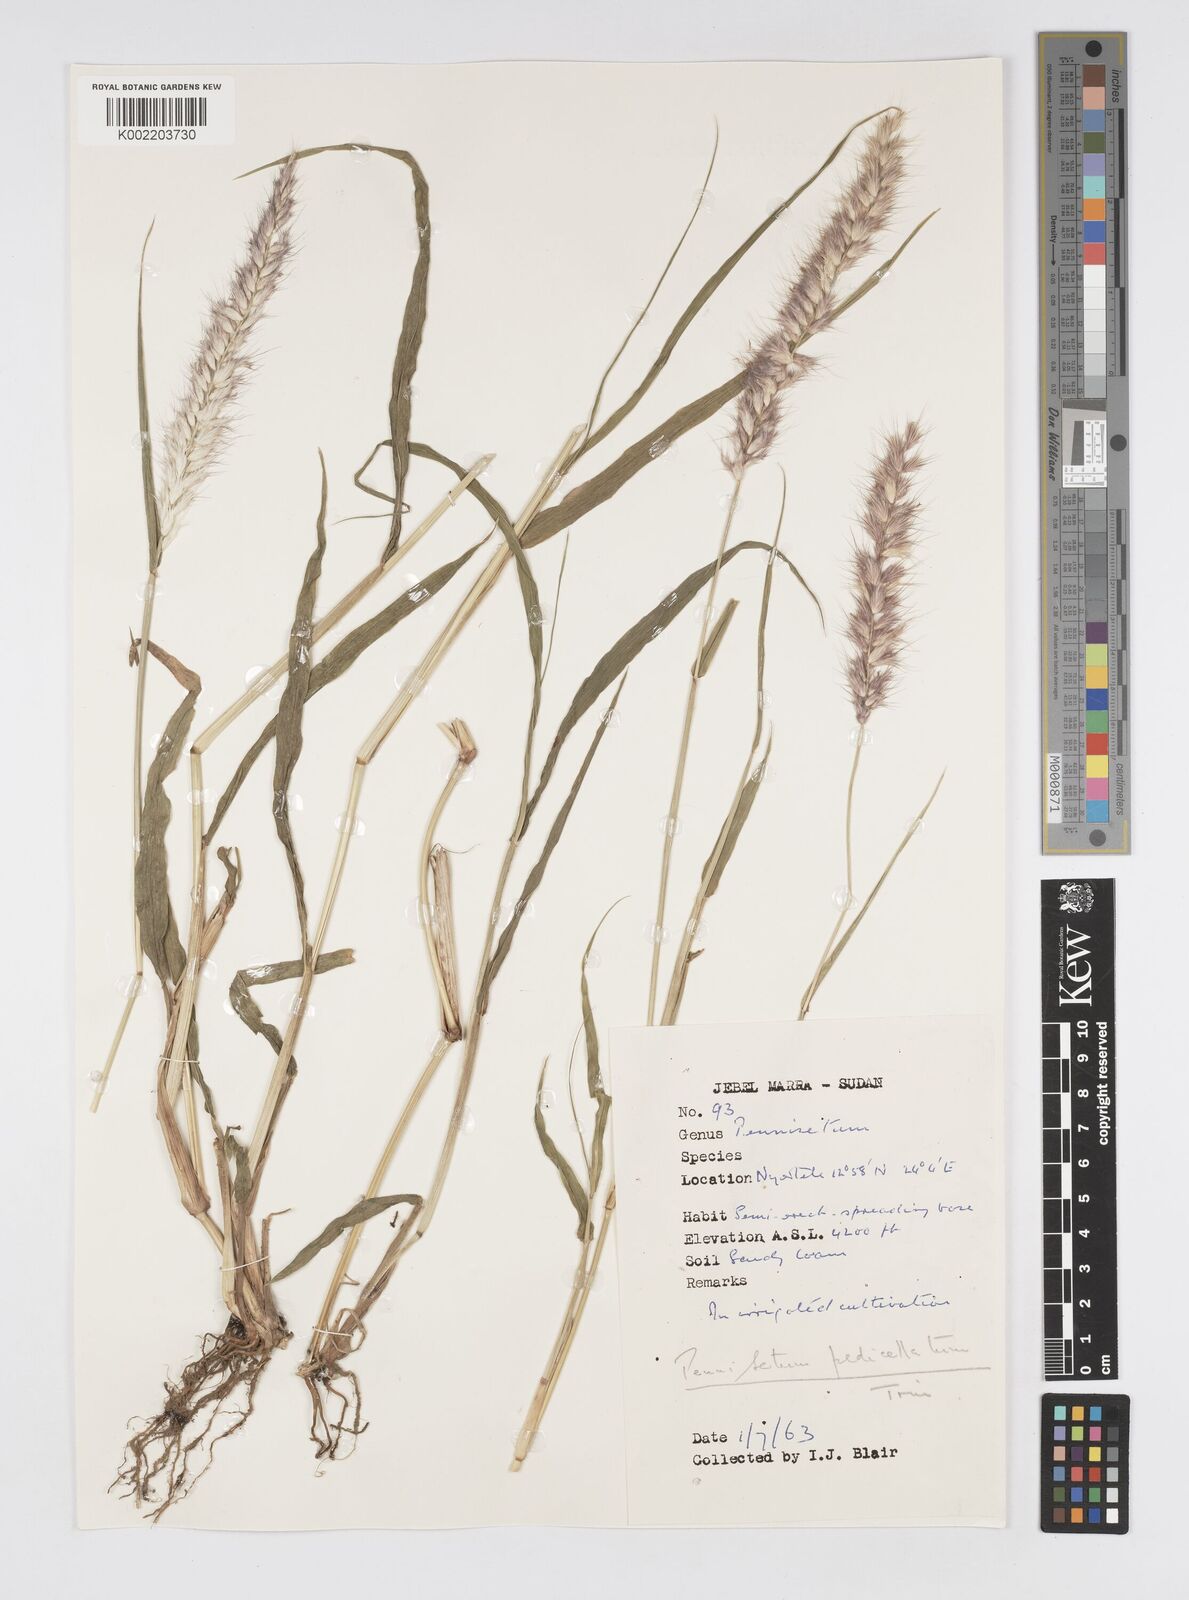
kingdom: Plantae
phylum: Tracheophyta
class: Liliopsida
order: Poales
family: Poaceae
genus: Cenchrus
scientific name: Cenchrus pedicellatus
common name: Hairy fountain grass
